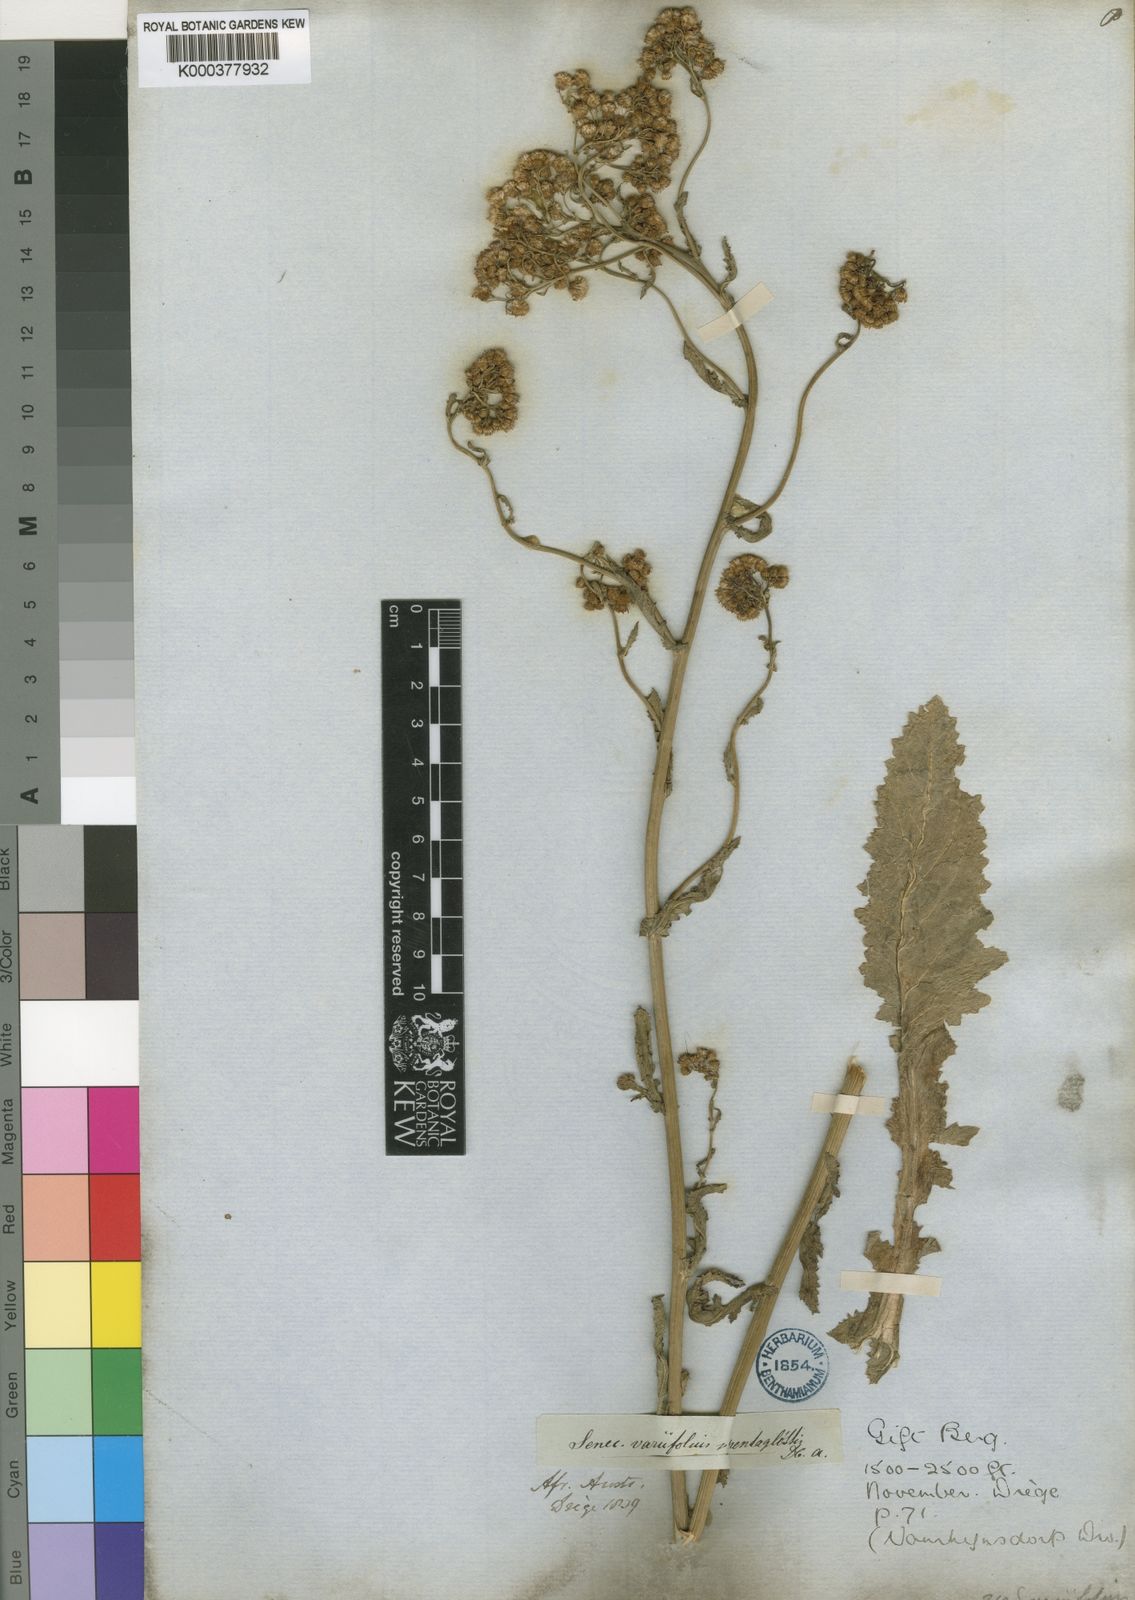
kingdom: Plantae
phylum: Tracheophyta
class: Magnoliopsida
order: Asterales
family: Asteraceae
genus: Senecio
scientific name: Senecio
